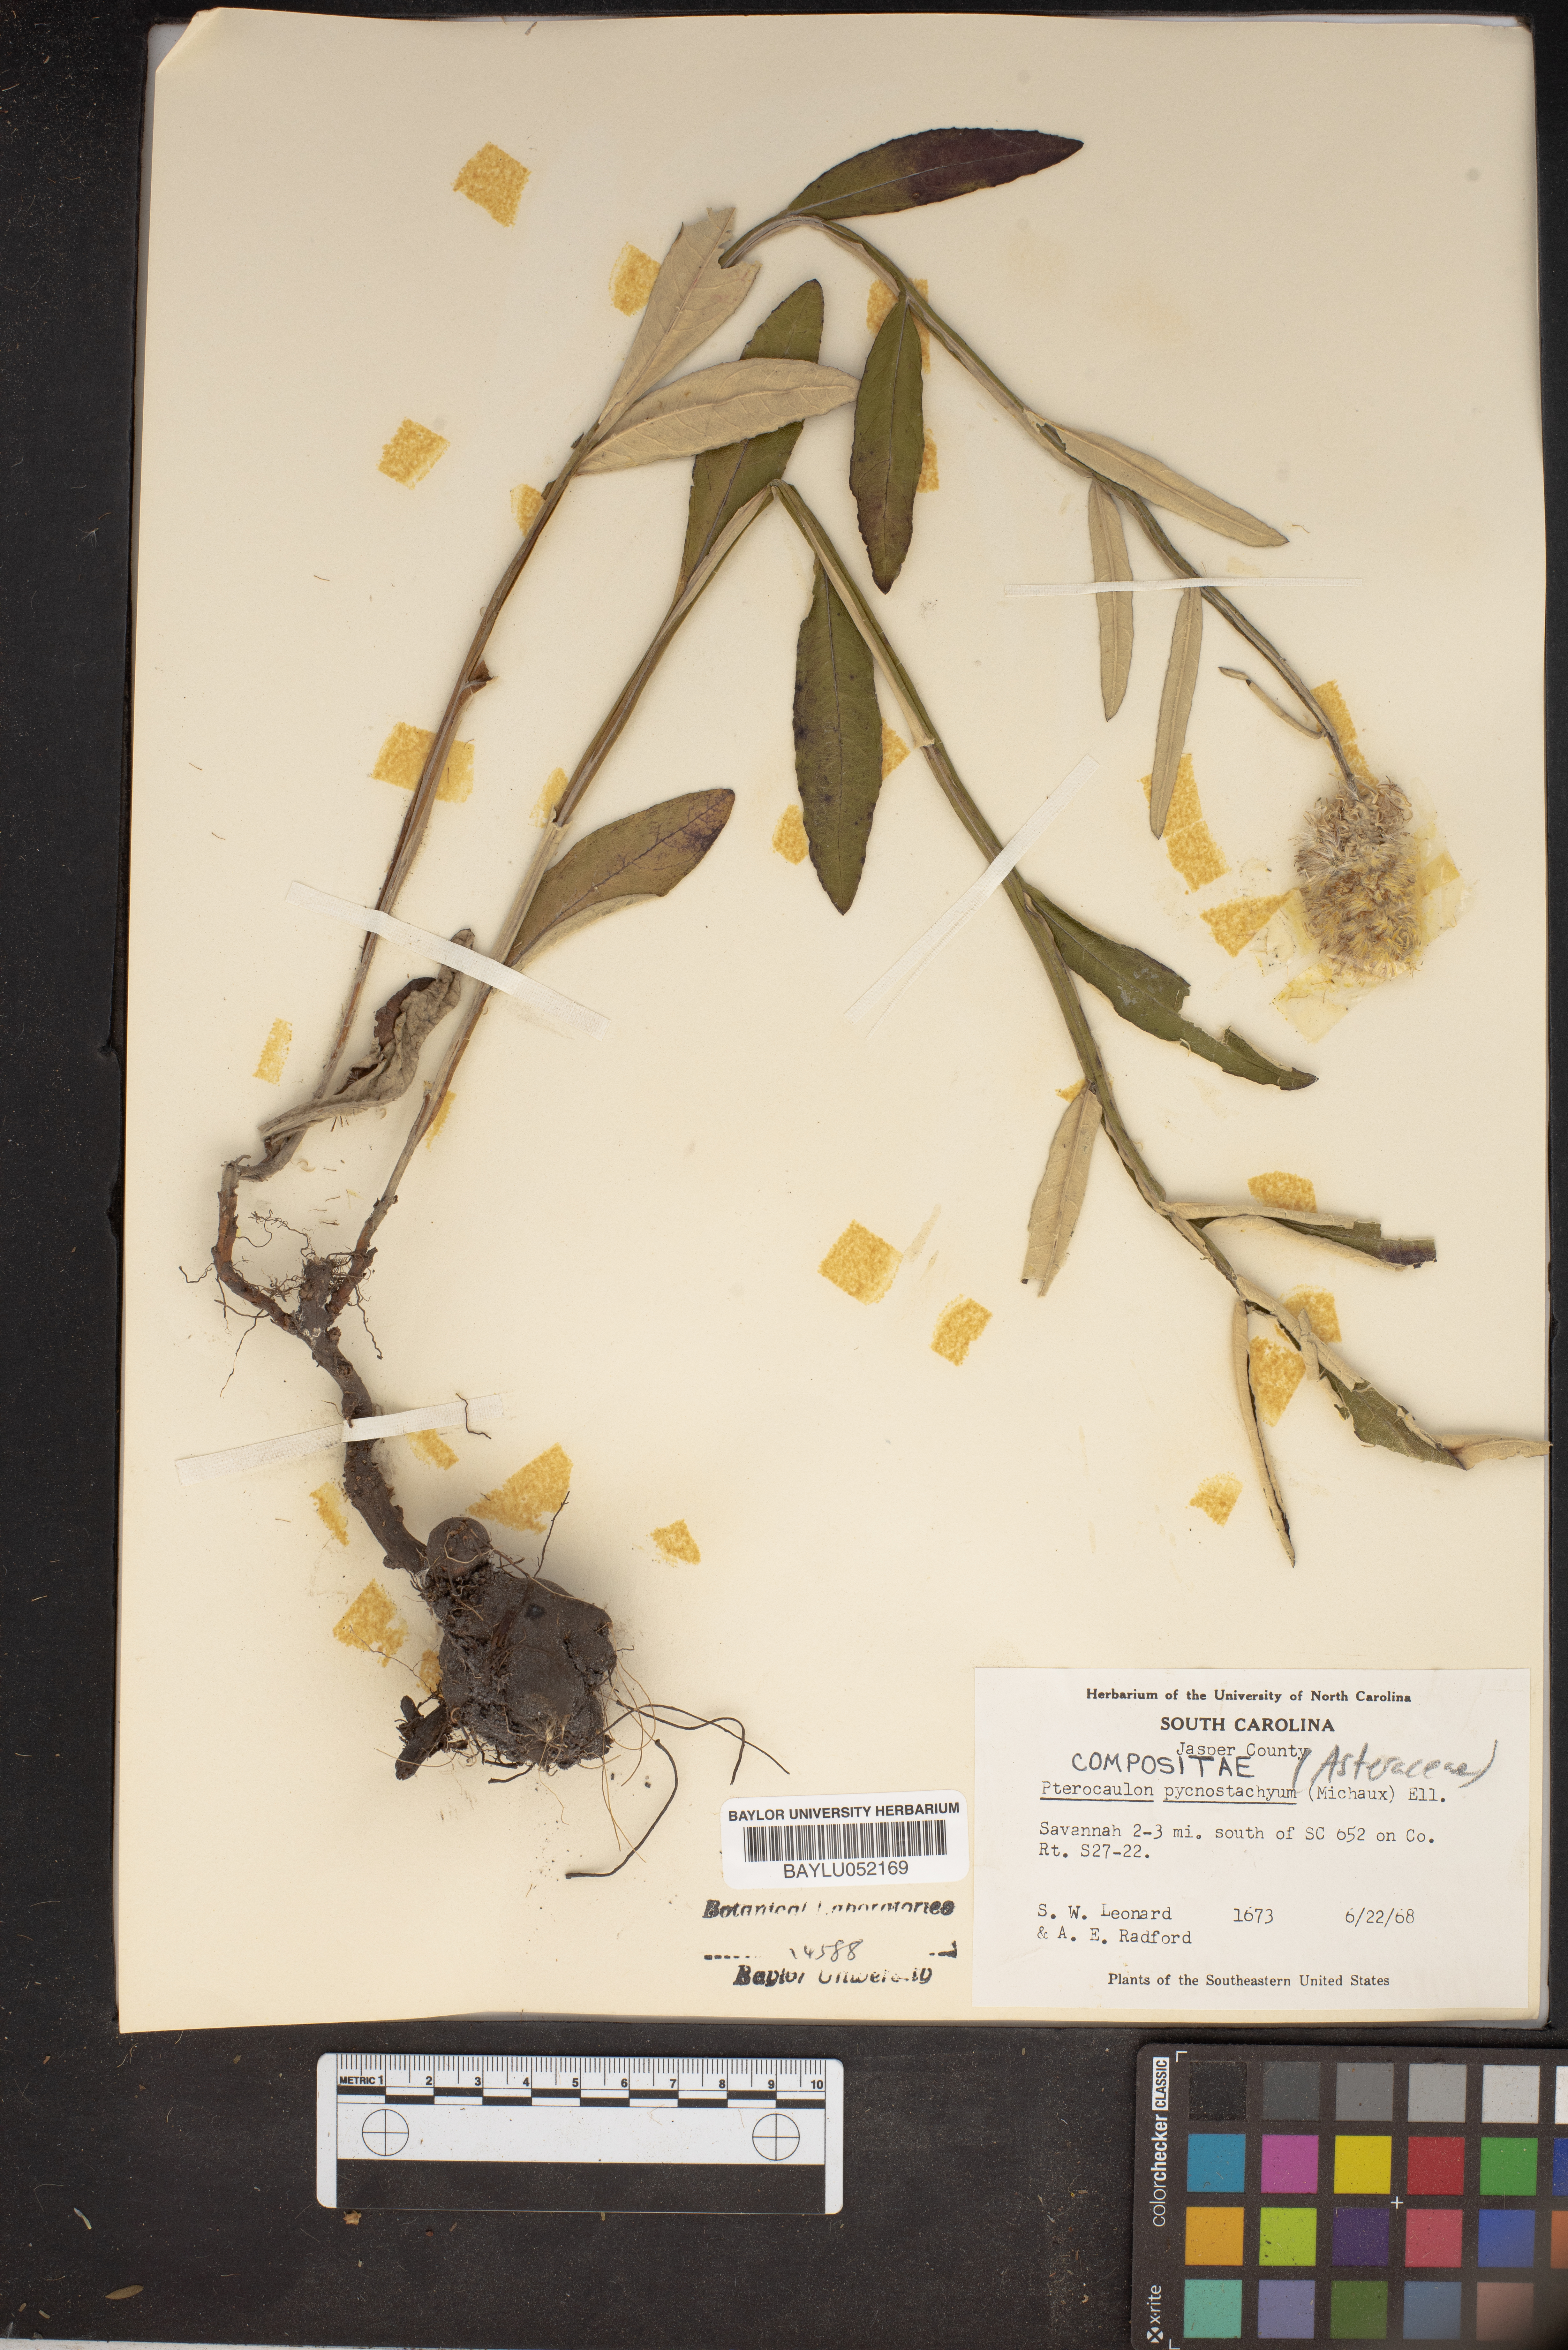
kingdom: Plantae
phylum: Tracheophyta
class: Magnoliopsida
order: Asterales
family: Asteraceae
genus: Pterocaulon
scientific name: Pterocaulon pycnostachyum
